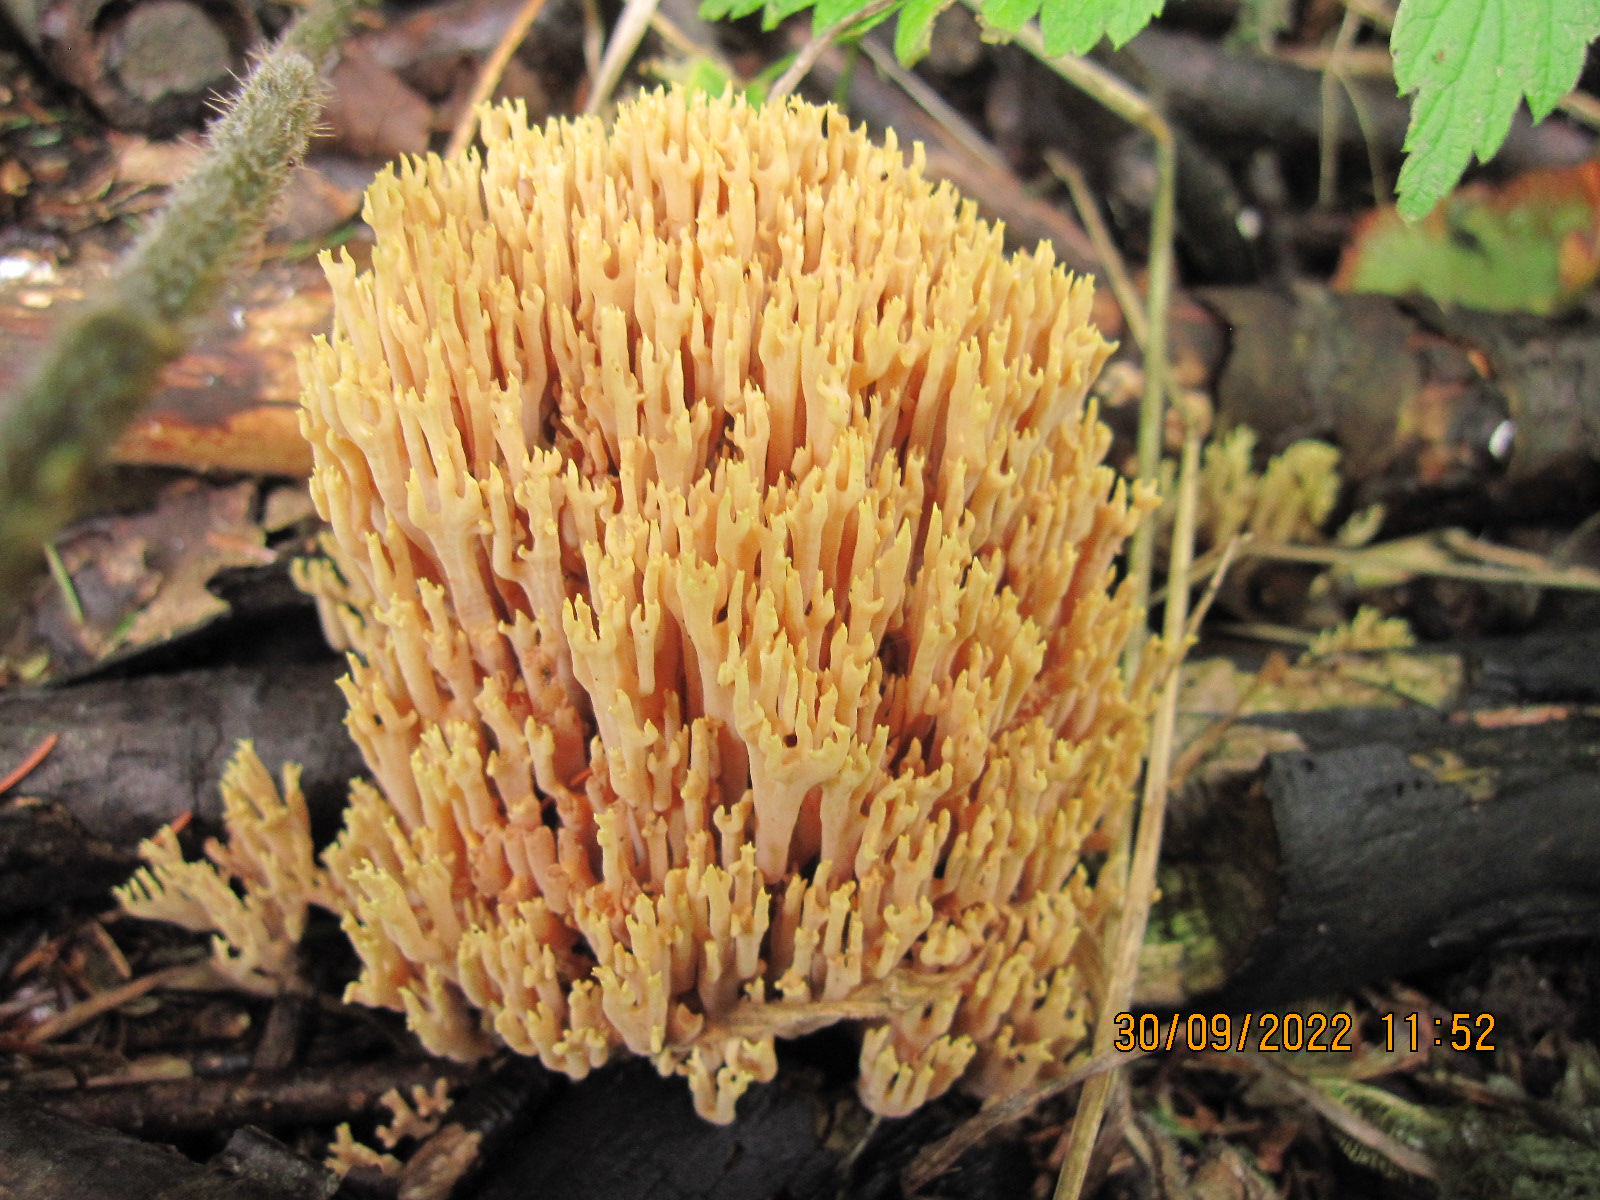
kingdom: Fungi
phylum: Basidiomycota
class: Agaricomycetes
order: Gomphales
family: Gomphaceae
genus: Ramaria
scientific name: Ramaria stricta
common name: rank koralsvamp
